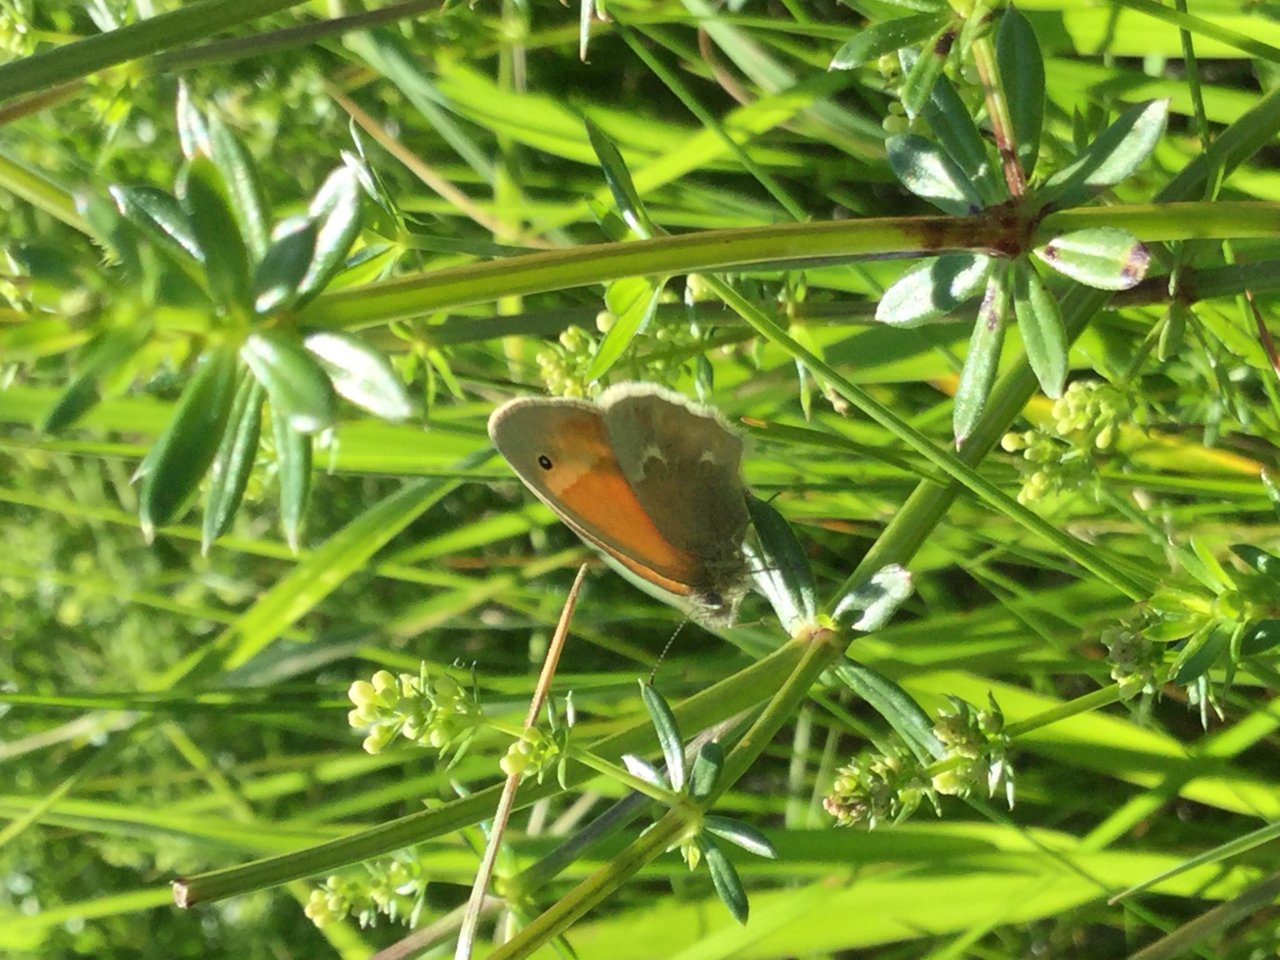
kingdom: Animalia
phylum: Arthropoda
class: Insecta
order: Lepidoptera
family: Nymphalidae
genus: Coenonympha
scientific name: Coenonympha tullia
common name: Large Heath
